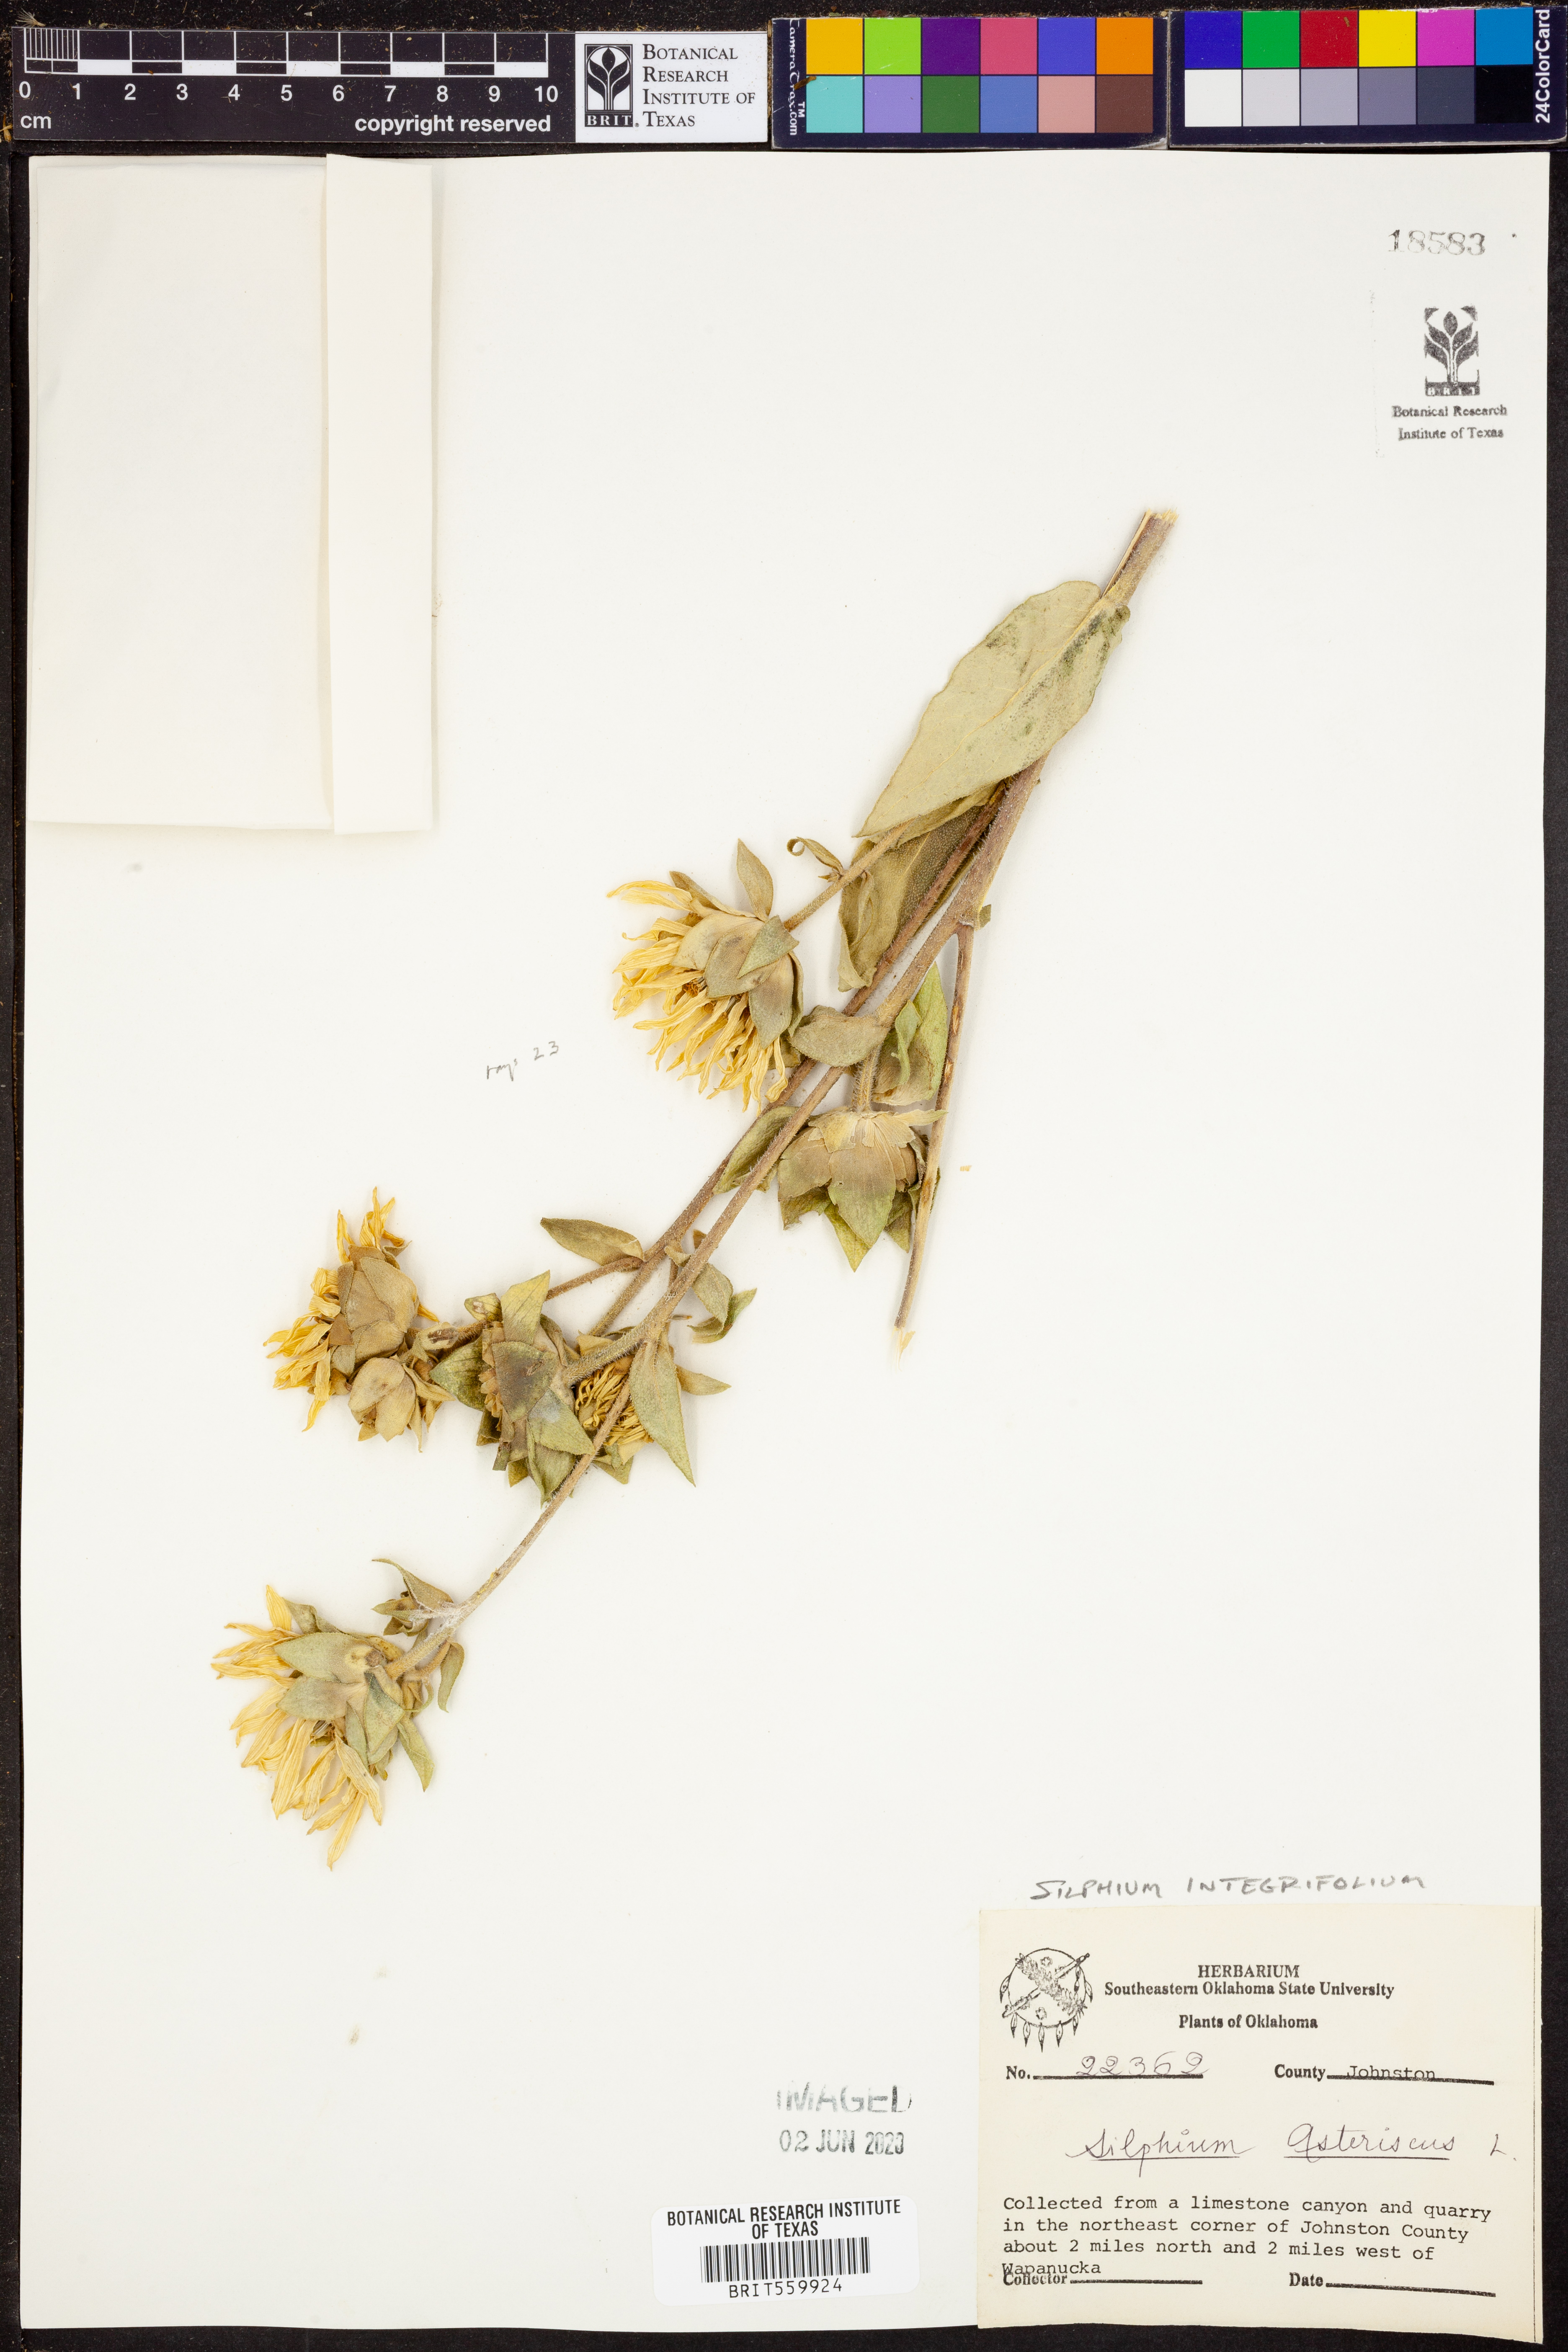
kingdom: Plantae
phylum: Tracheophyta
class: Magnoliopsida
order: Asterales
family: Asteraceae
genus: Silphium
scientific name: Silphium integrifolium
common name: Whole-leaf rosinweed
